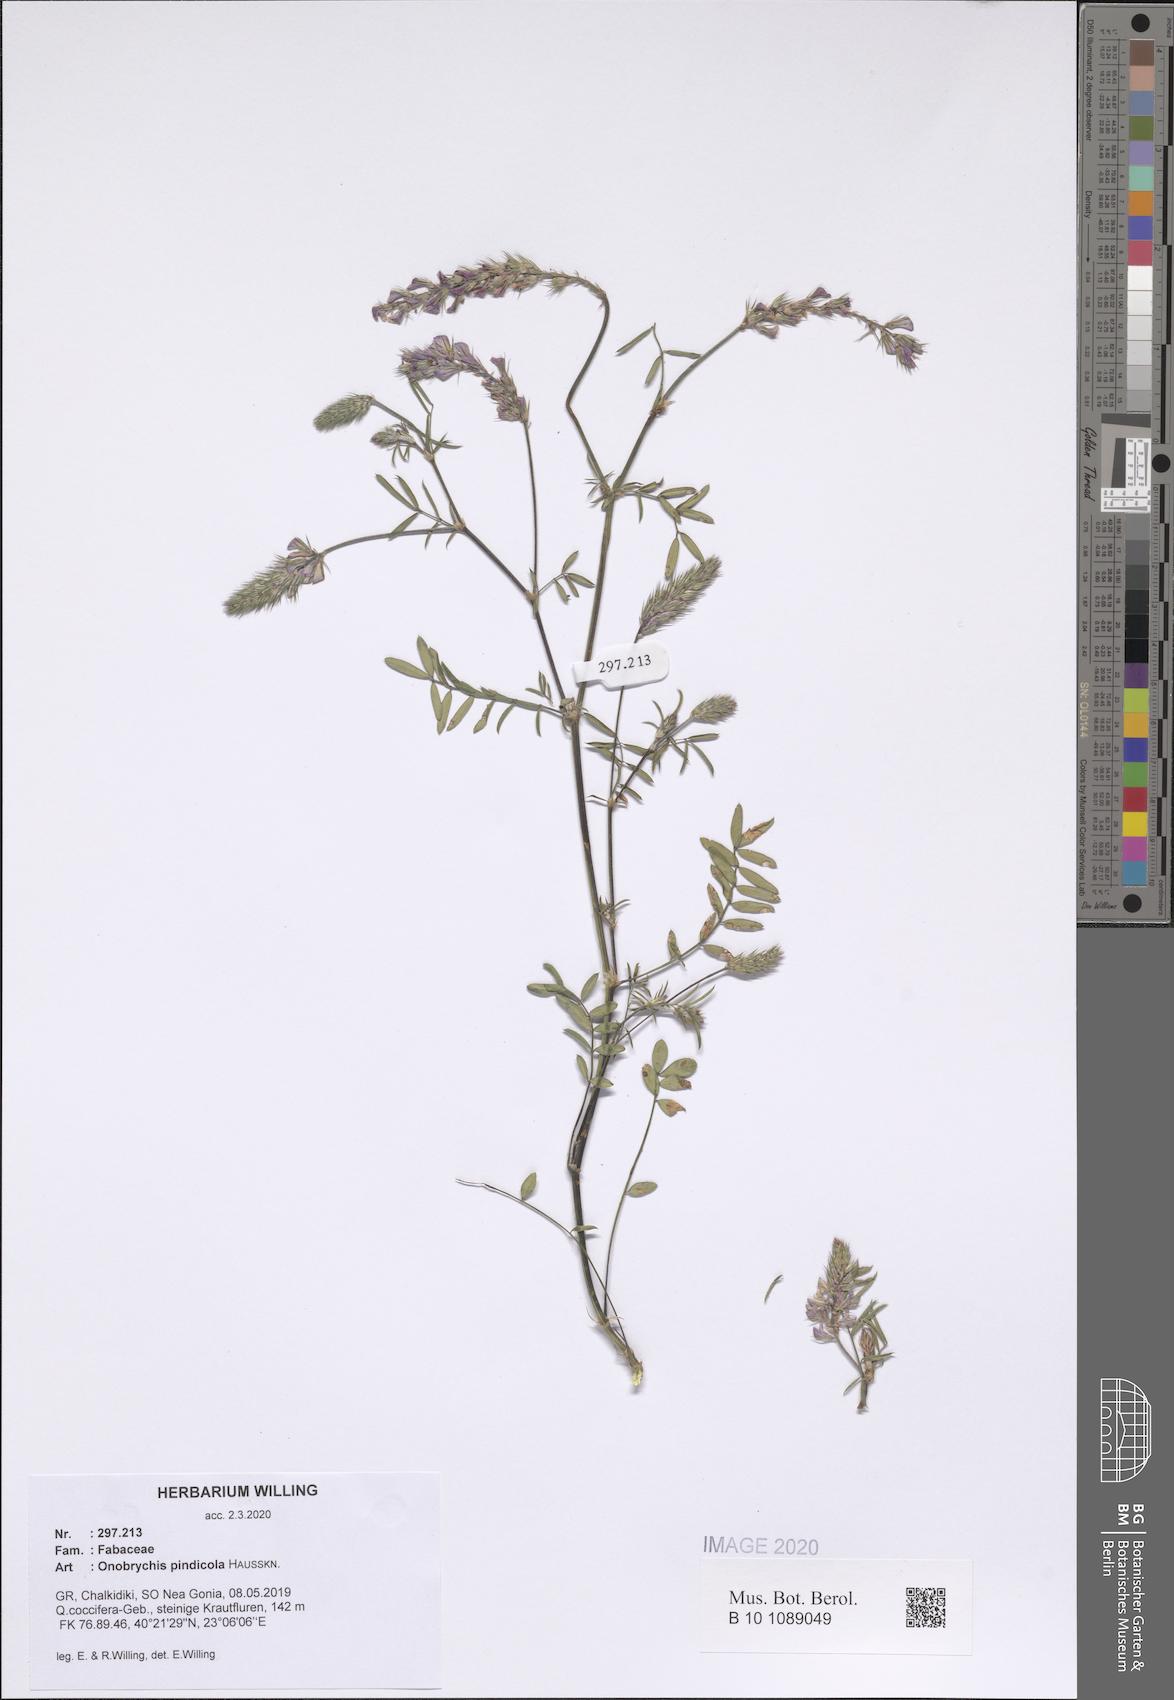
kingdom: Plantae
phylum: Tracheophyta
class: Magnoliopsida
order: Fabales
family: Fabaceae
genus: Onobrychis
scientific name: Onobrychis pindicola
